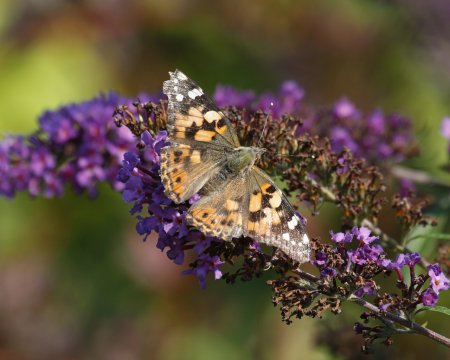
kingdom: Animalia
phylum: Arthropoda
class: Insecta
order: Lepidoptera
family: Nymphalidae
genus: Vanessa
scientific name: Vanessa cardui
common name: Painted Lady
